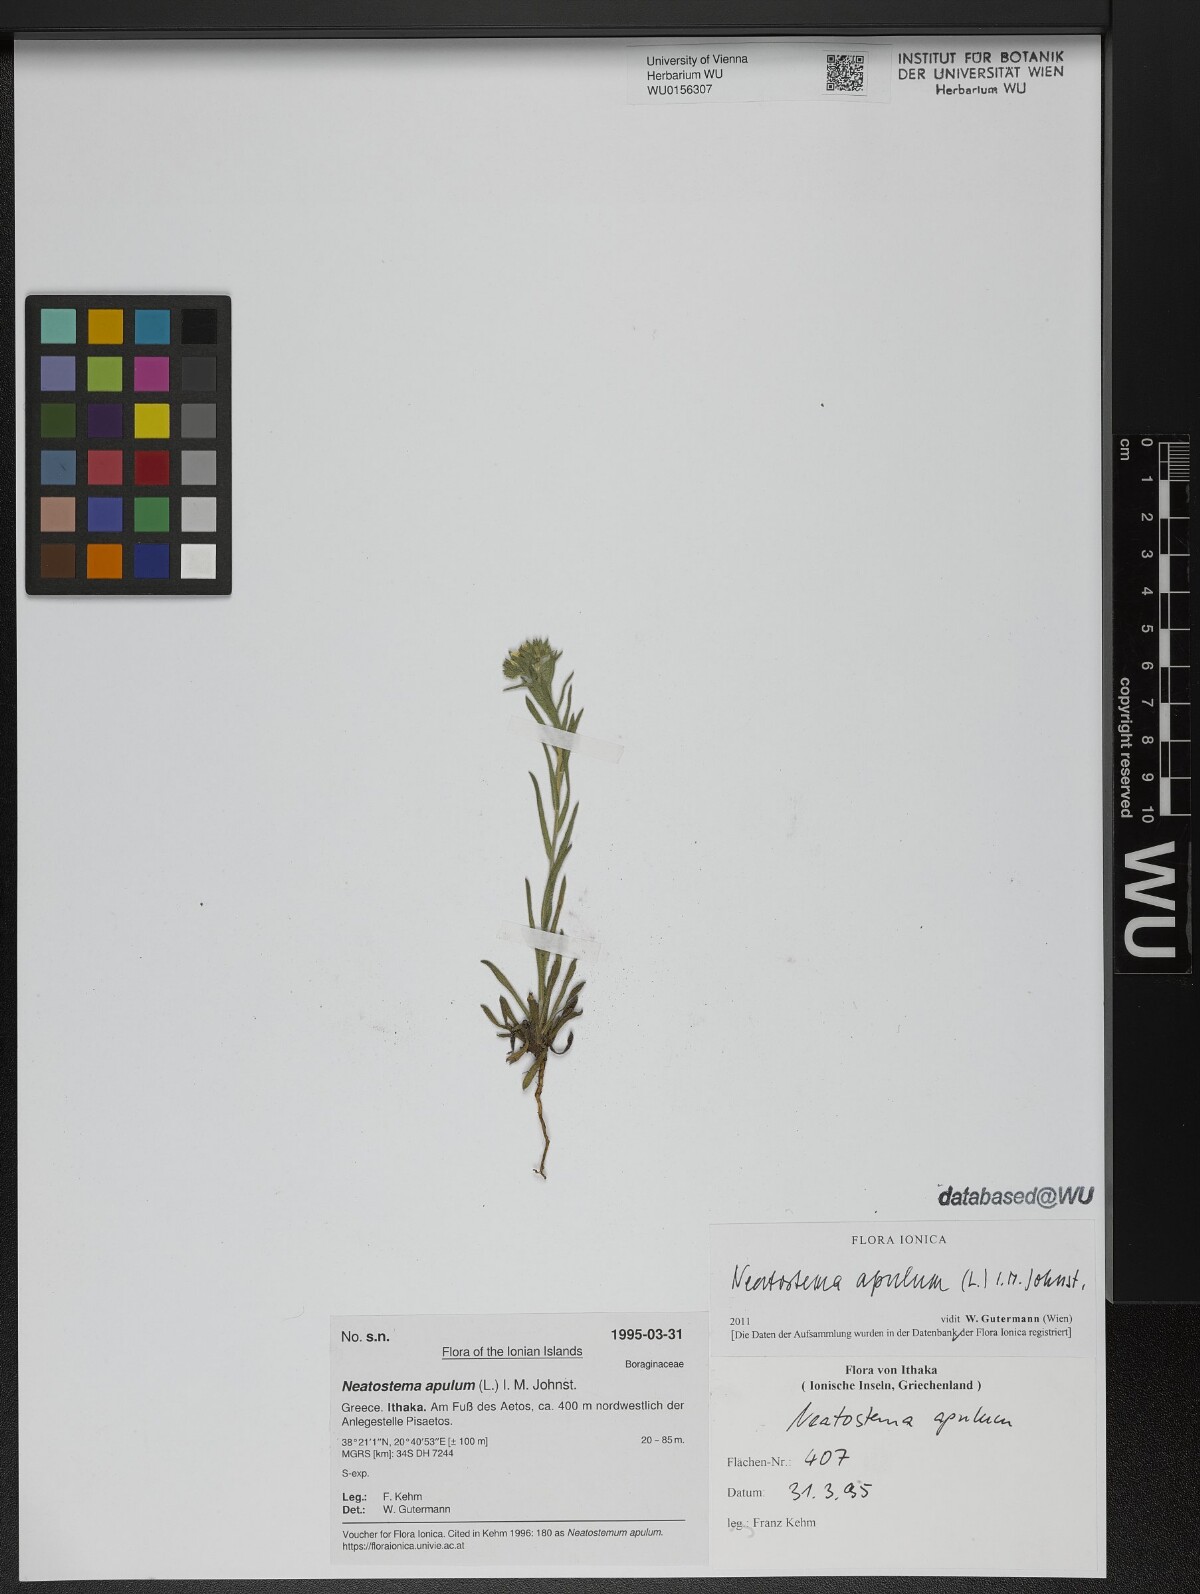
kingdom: Plantae
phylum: Tracheophyta
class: Magnoliopsida
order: Boraginales
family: Boraginaceae
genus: Neatostema
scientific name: Neatostema apulum
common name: Hairy sheepweed
